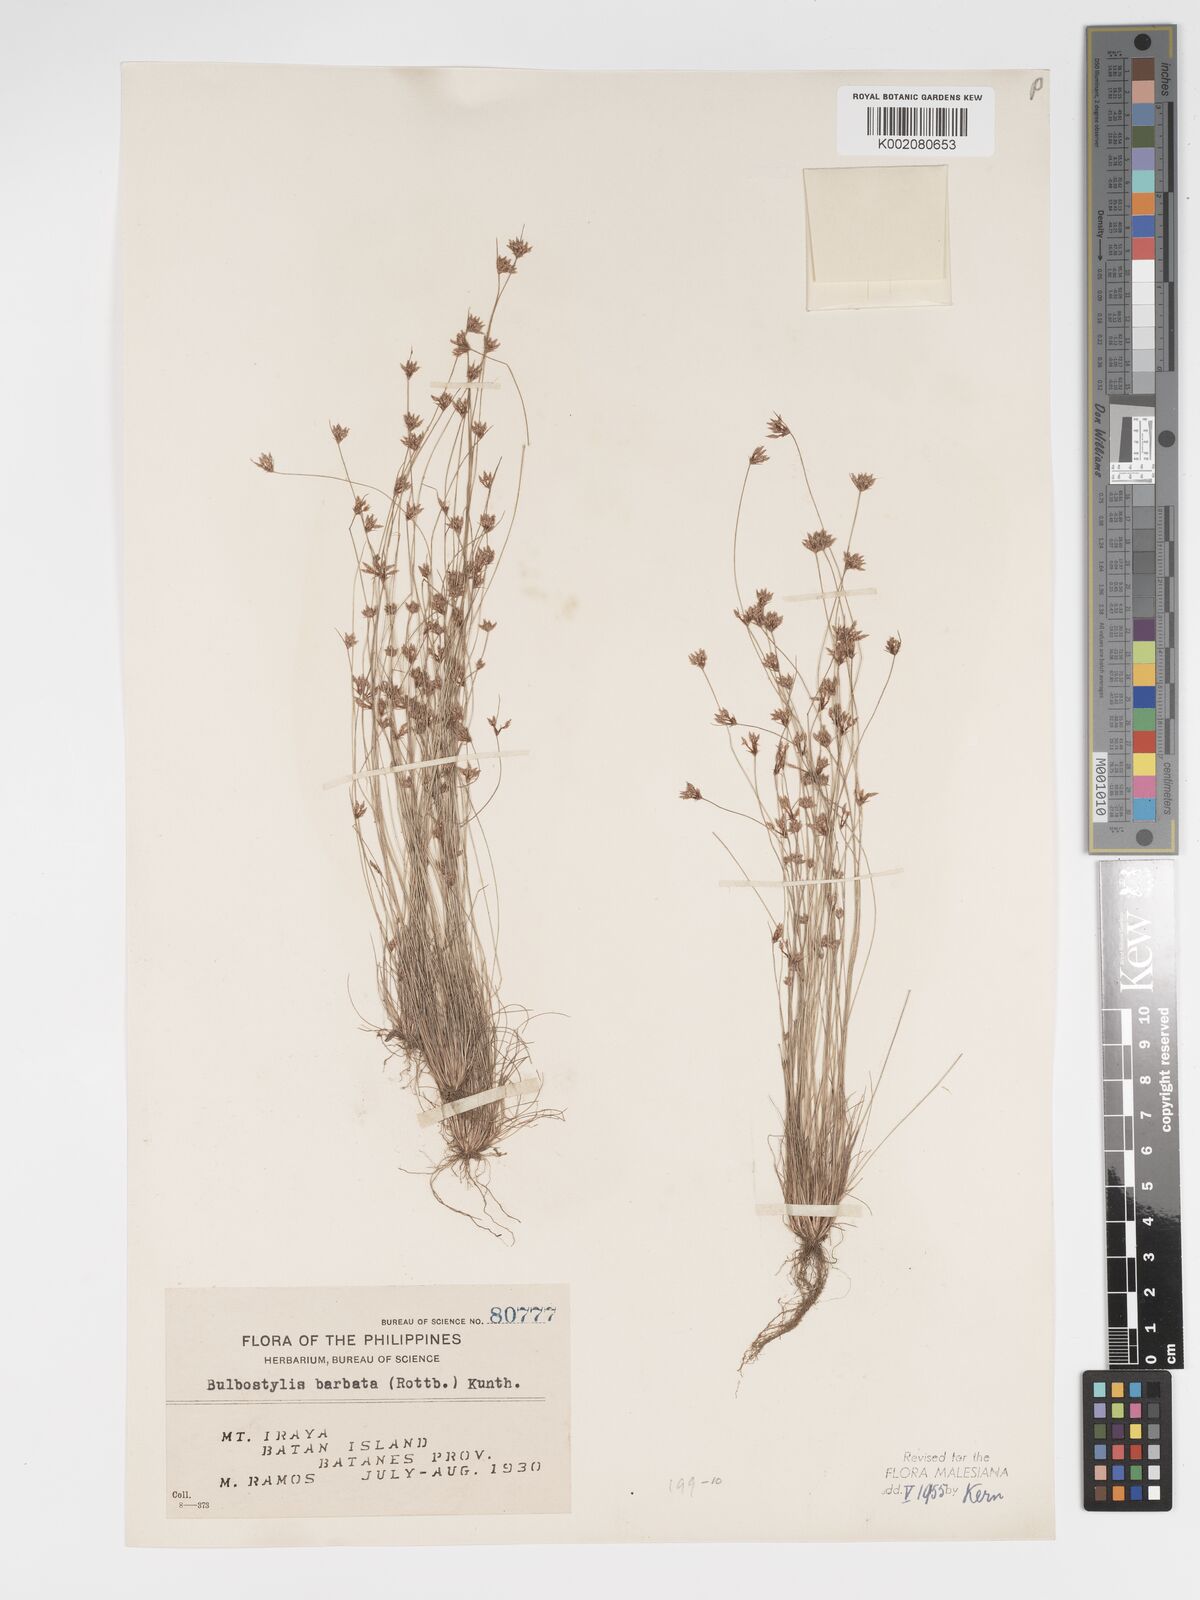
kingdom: Plantae
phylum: Tracheophyta
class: Liliopsida
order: Poales
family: Cyperaceae
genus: Bulbostylis
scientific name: Bulbostylis barbata
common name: Watergrass
